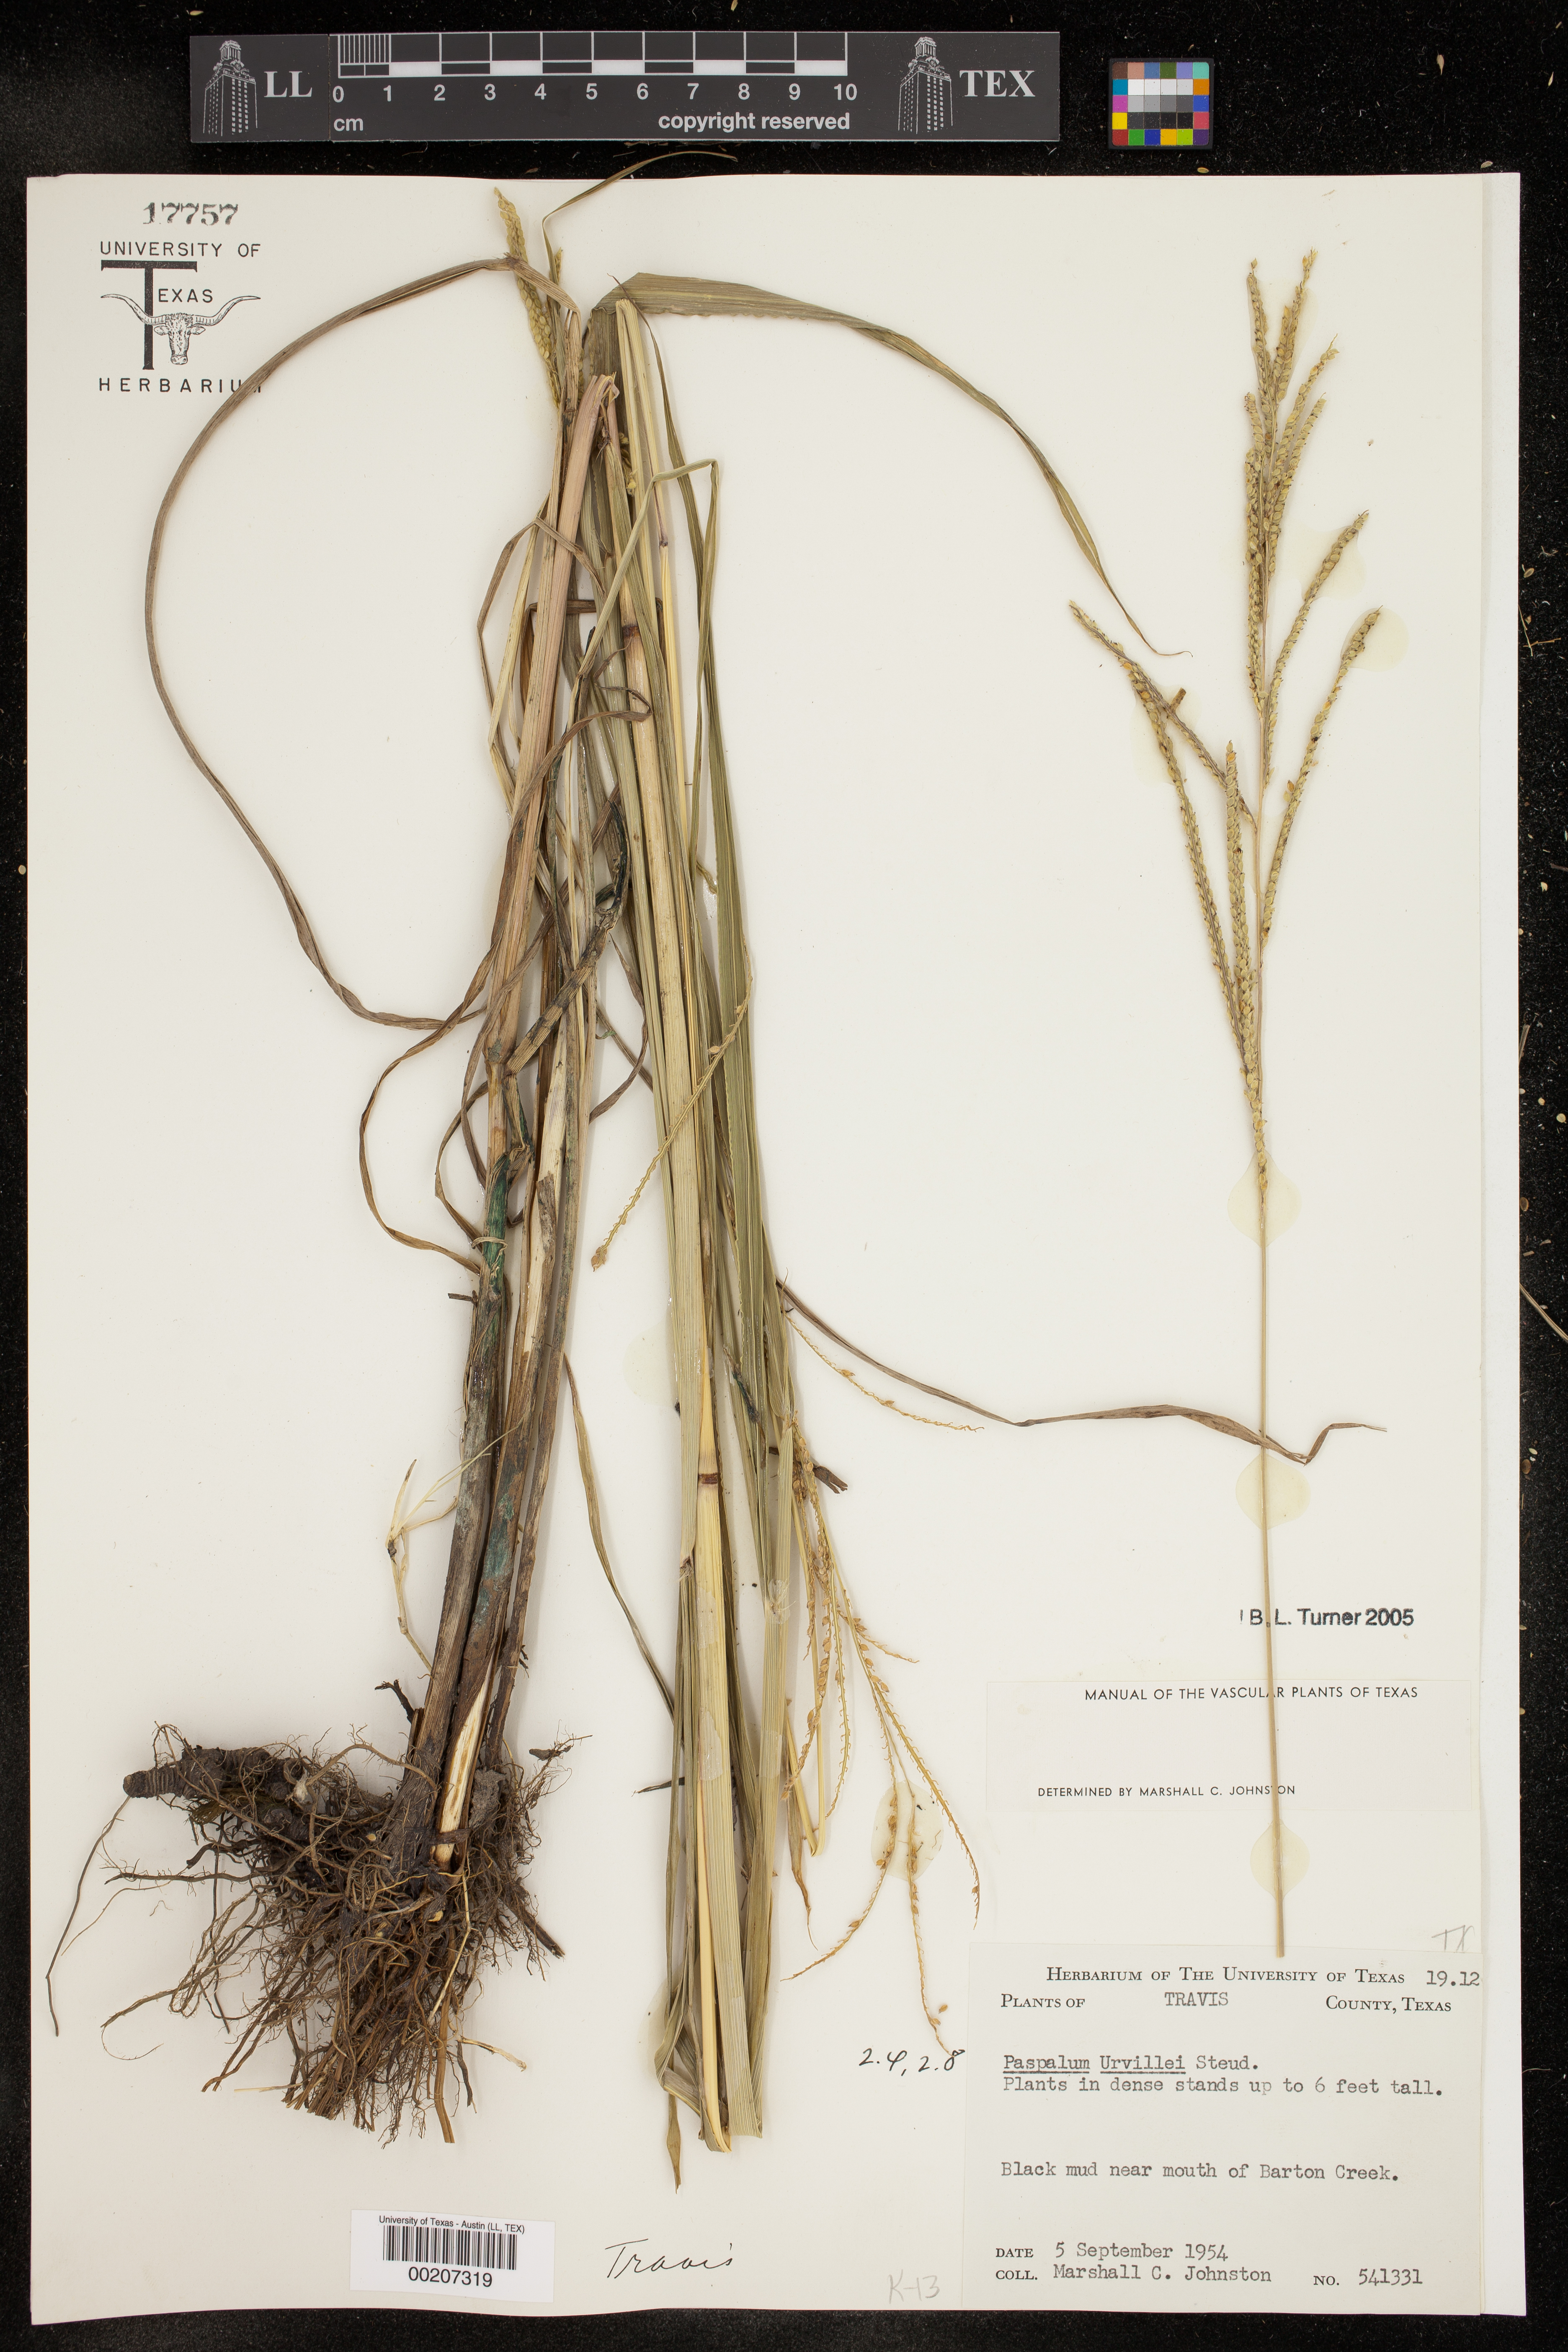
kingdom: Plantae
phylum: Tracheophyta
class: Liliopsida
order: Poales
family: Poaceae
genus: Paspalum
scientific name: Paspalum urvillei
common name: Vasey's grass
